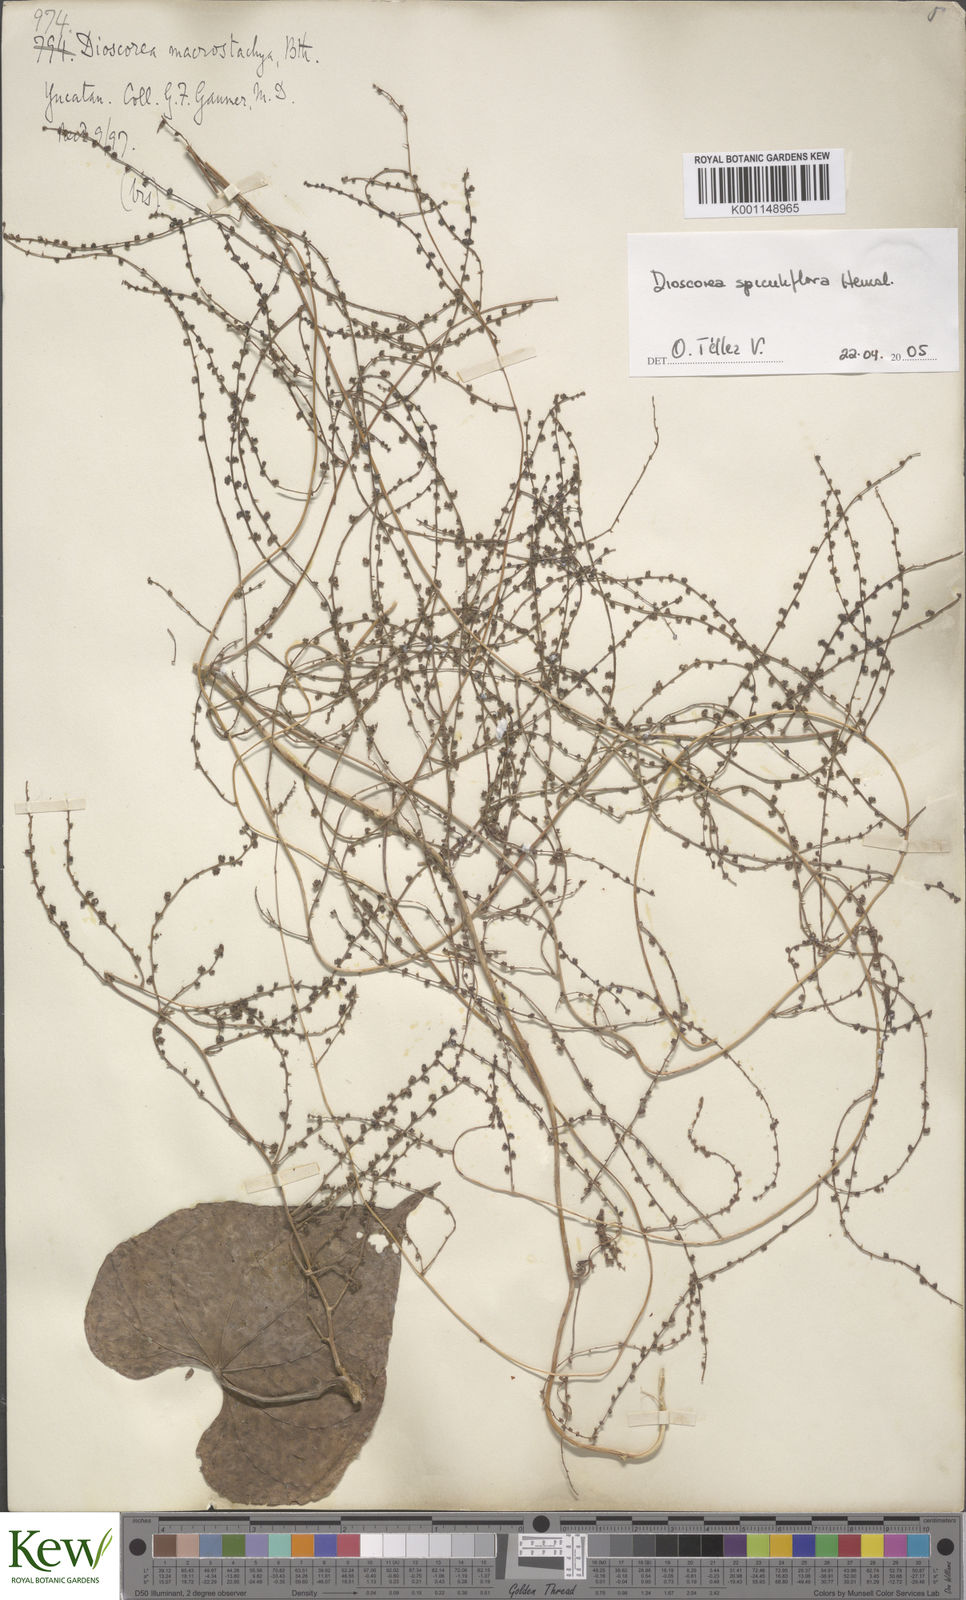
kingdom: Plantae
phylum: Tracheophyta
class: Liliopsida
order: Dioscoreales
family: Dioscoreaceae
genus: Dioscorea
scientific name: Dioscorea spiculiflora
